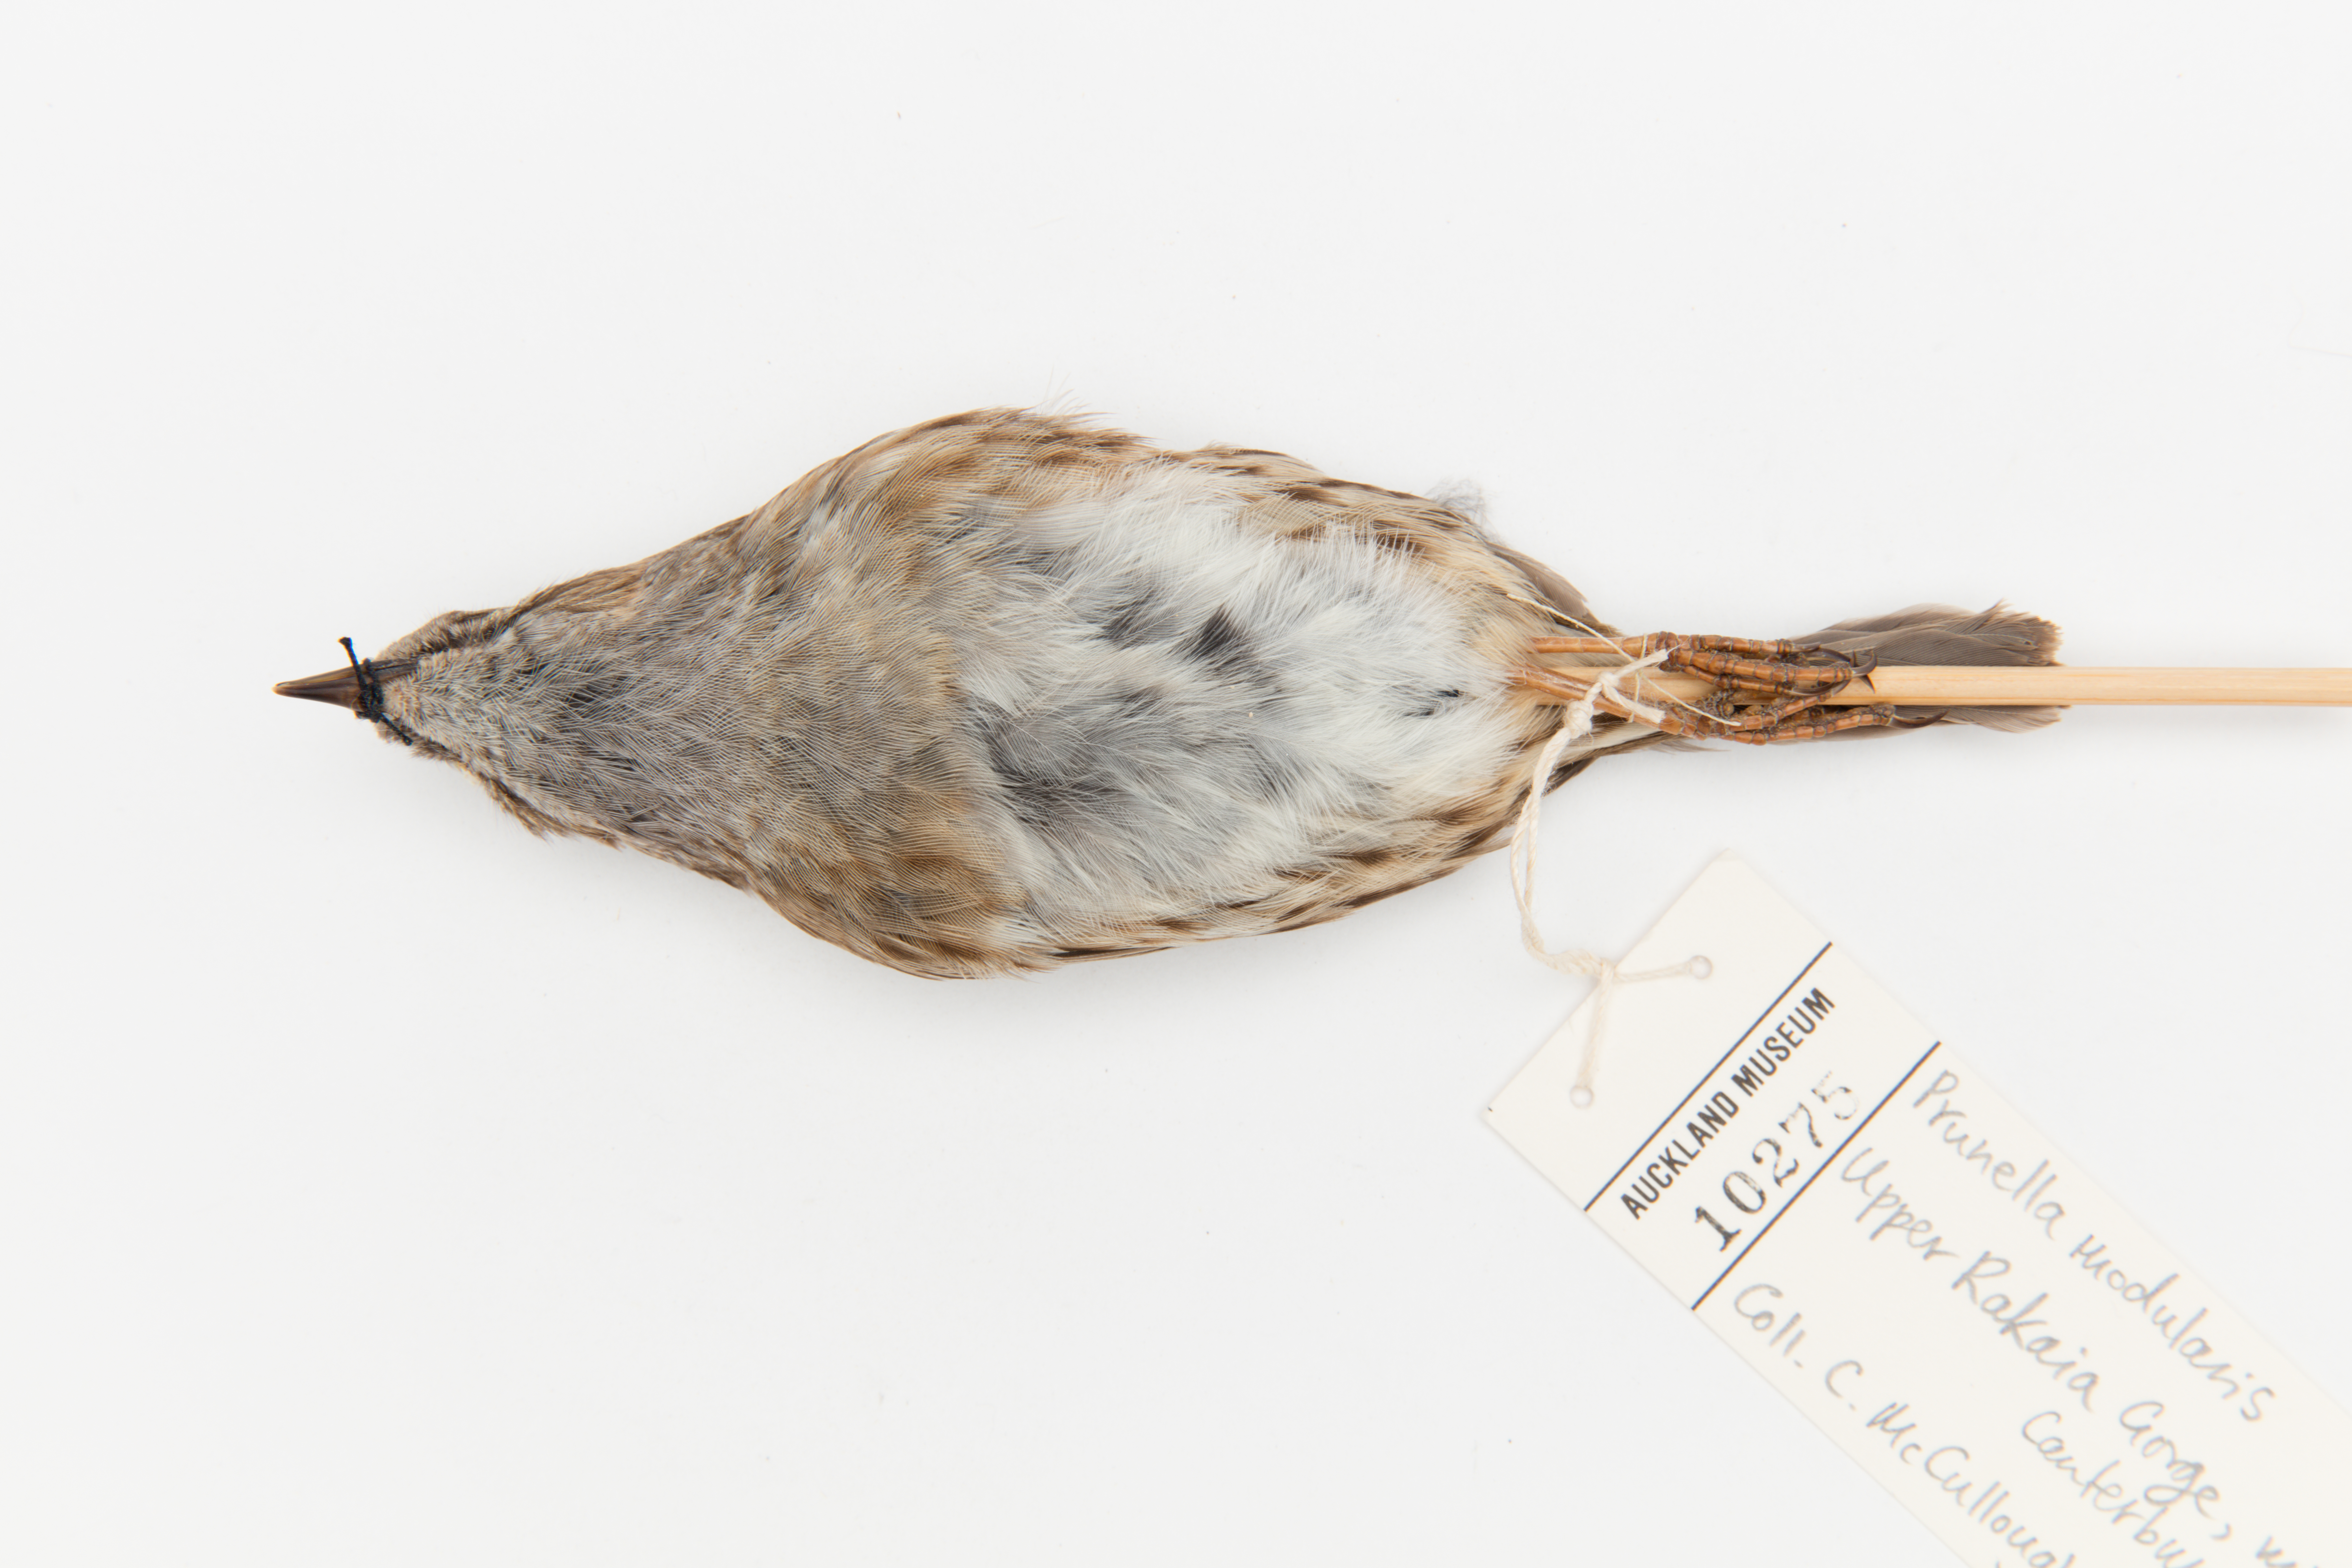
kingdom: Animalia
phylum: Chordata
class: Aves
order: Passeriformes
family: Prunellidae
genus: Prunella
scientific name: Prunella modularis
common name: Dunnock
